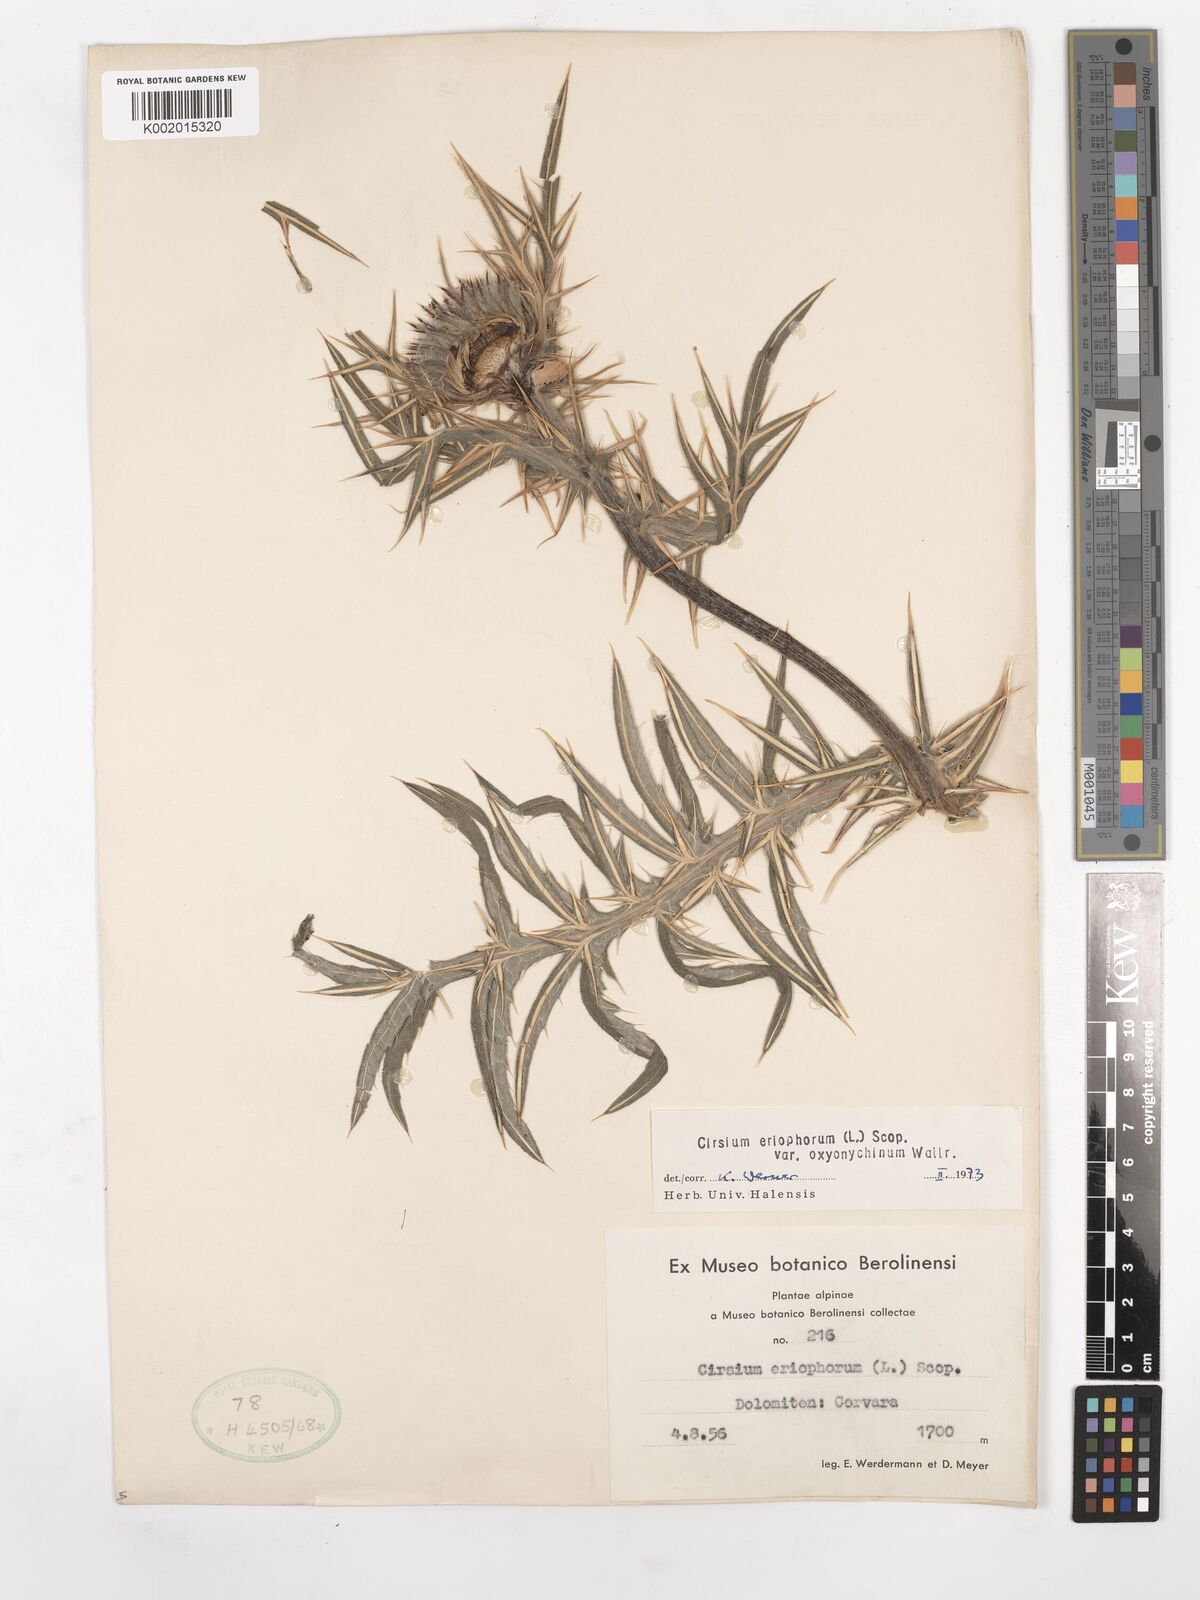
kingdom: Plantae
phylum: Tracheophyta
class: Magnoliopsida
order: Asterales
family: Asteraceae
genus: Lophiolepis
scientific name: Lophiolepis eriophora
